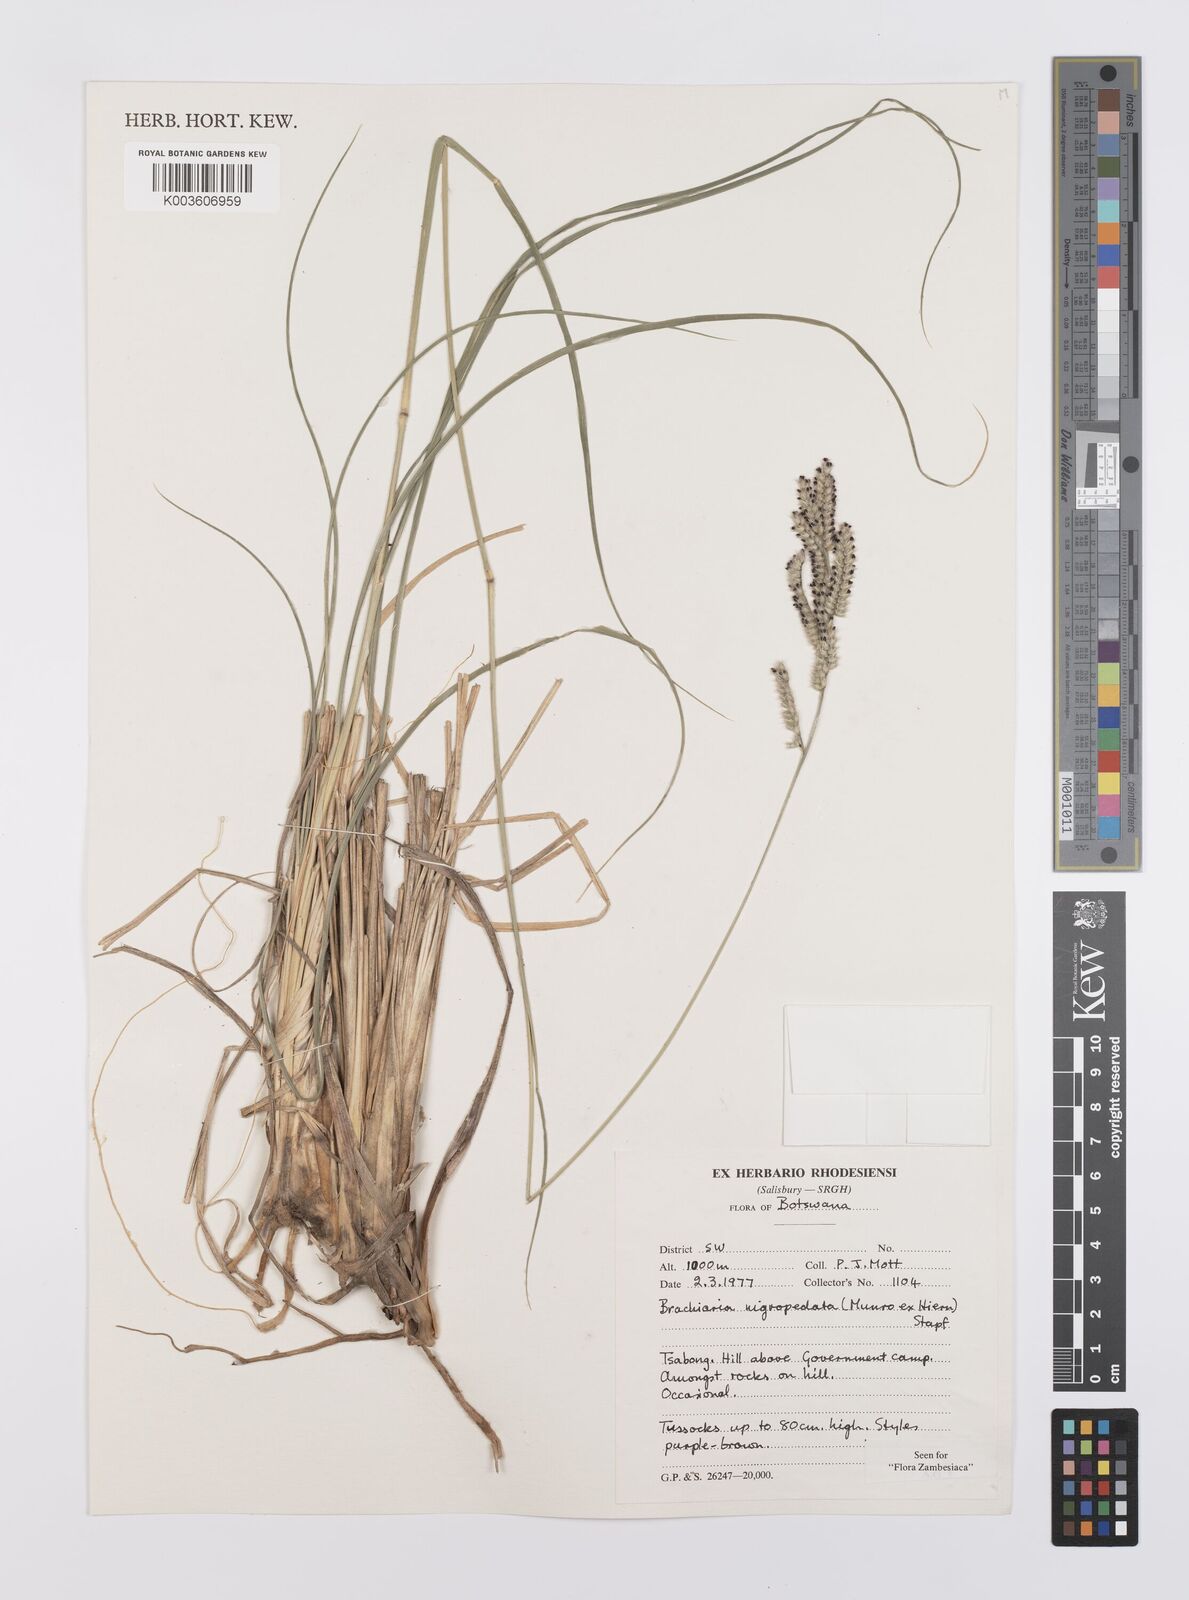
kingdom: Plantae
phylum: Tracheophyta
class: Liliopsida
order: Poales
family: Poaceae
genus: Urochloa
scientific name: Urochloa nigropedata
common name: Spotted signal grass
